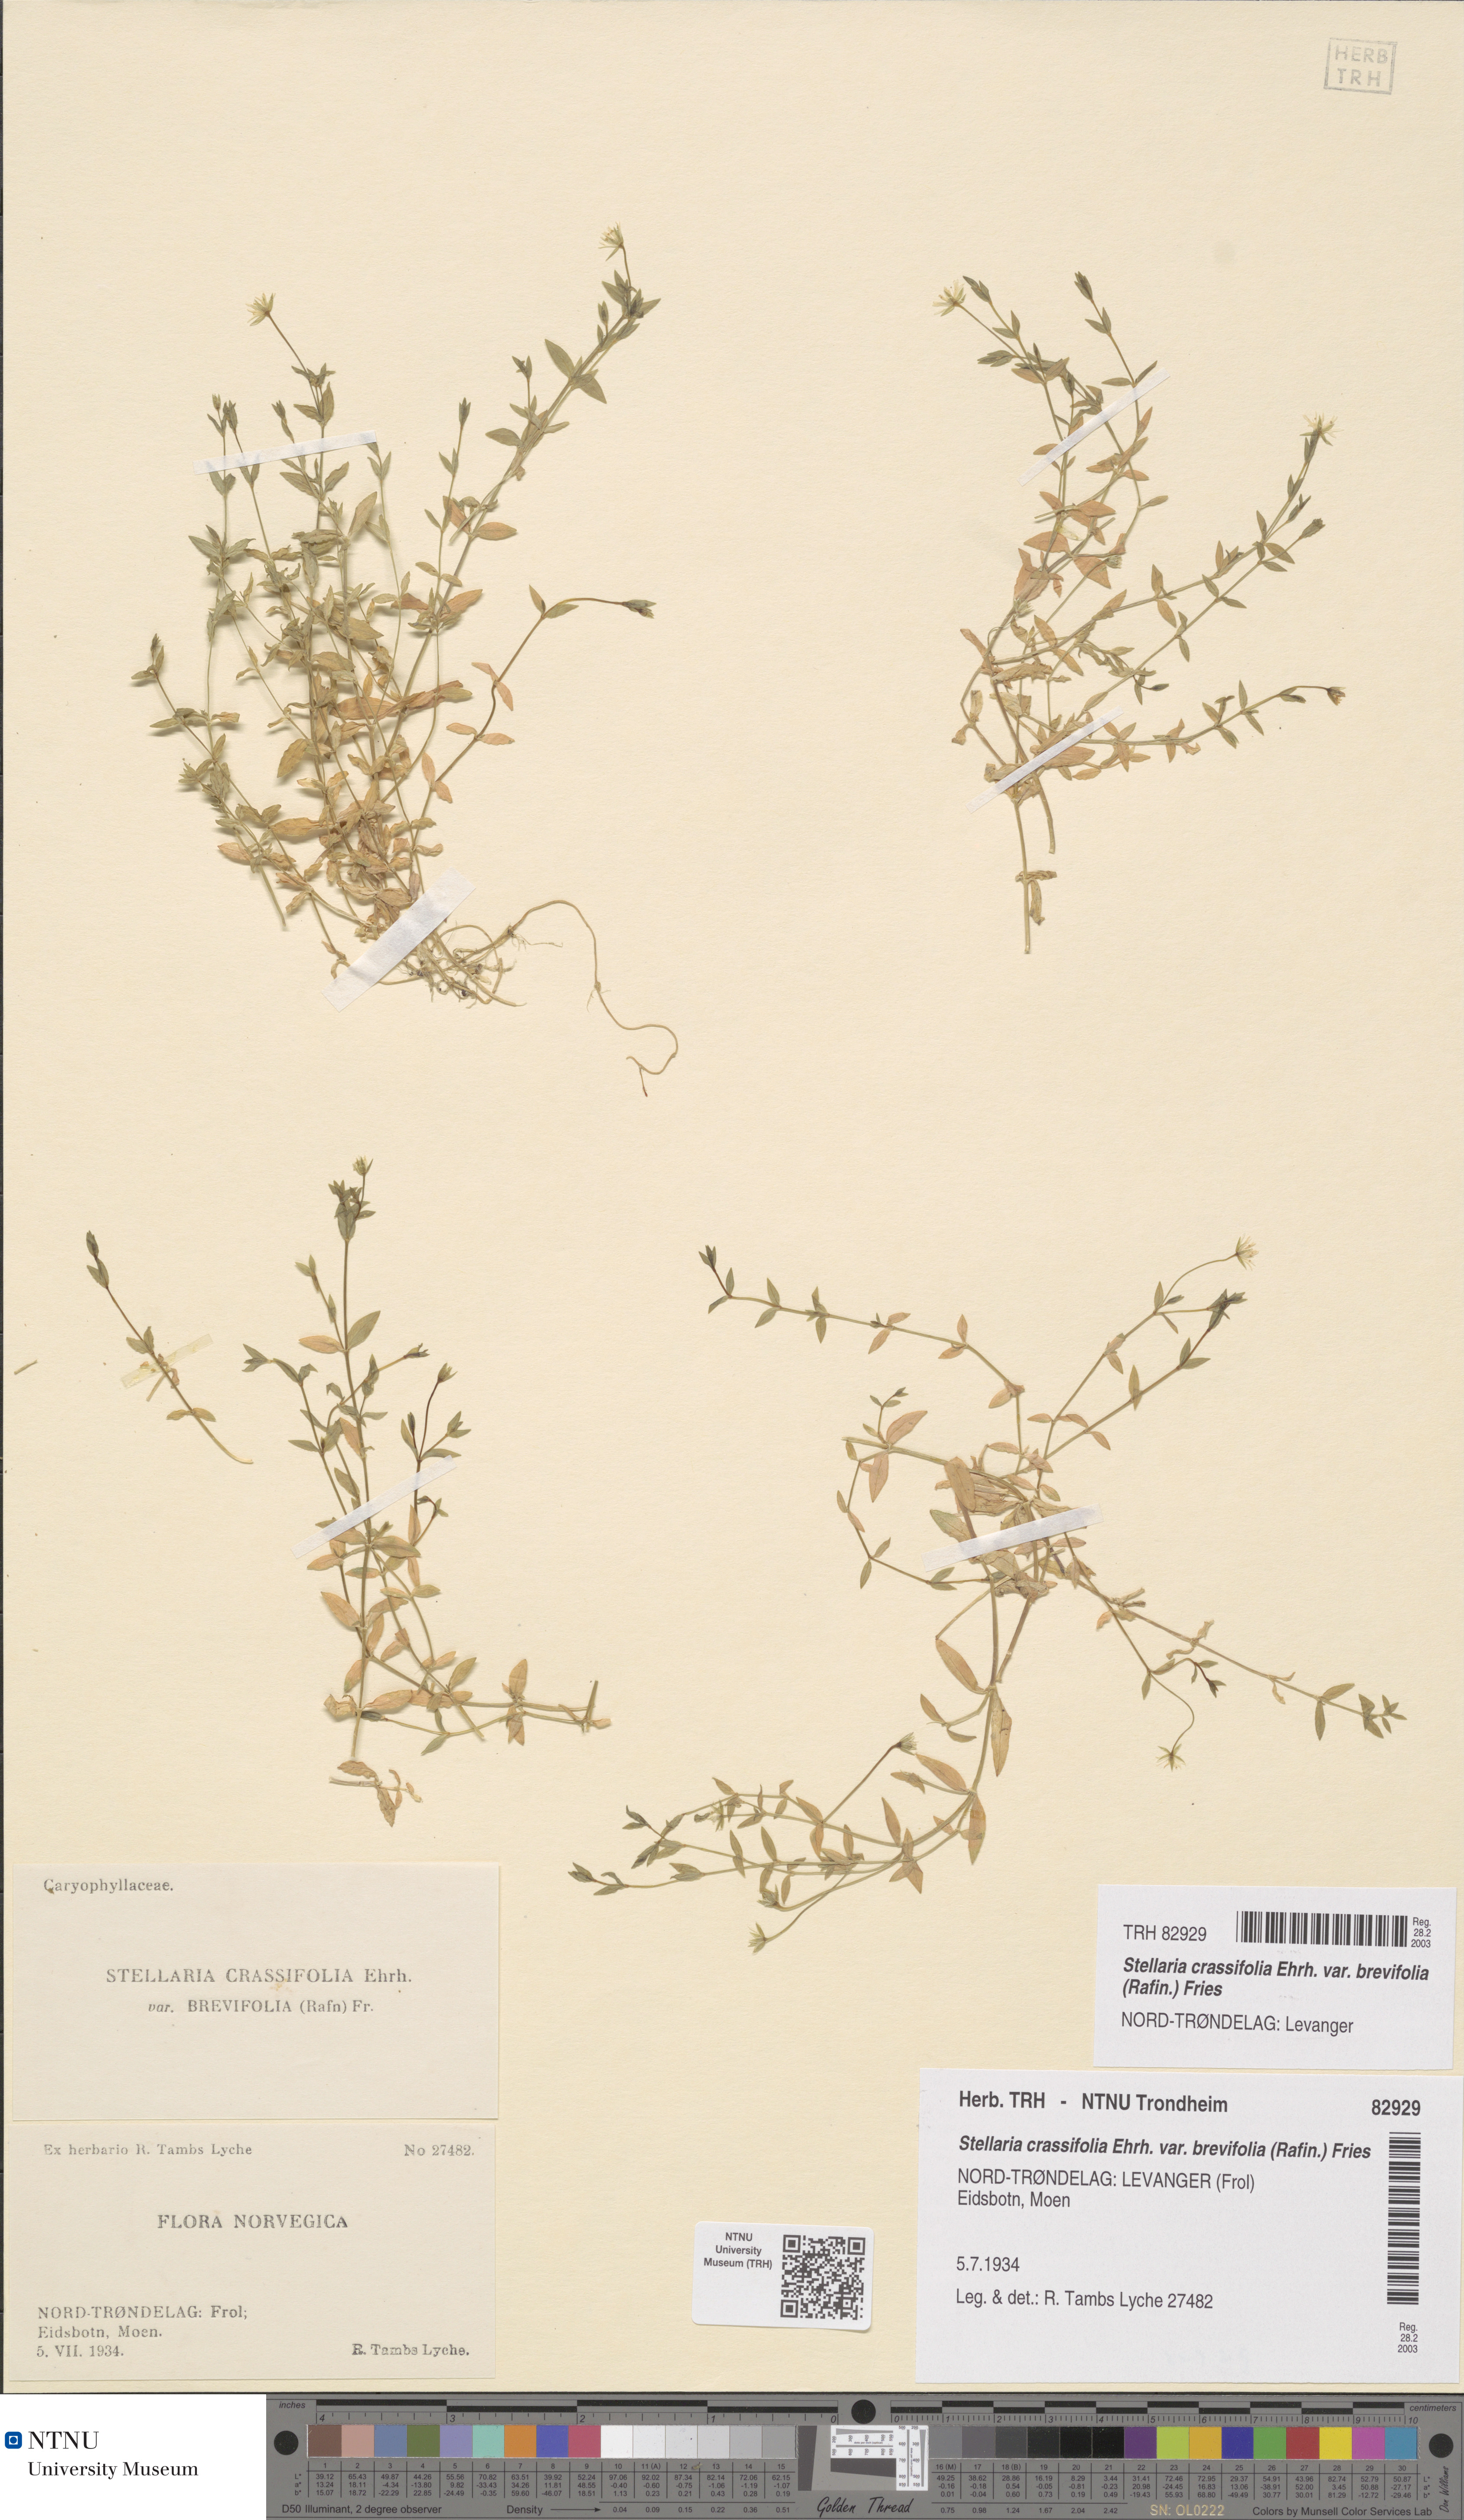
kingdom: Plantae
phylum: Tracheophyta
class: Magnoliopsida
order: Caryophyllales
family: Caryophyllaceae
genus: Stellaria
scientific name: Stellaria crassifolia
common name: Fleshy starwort
